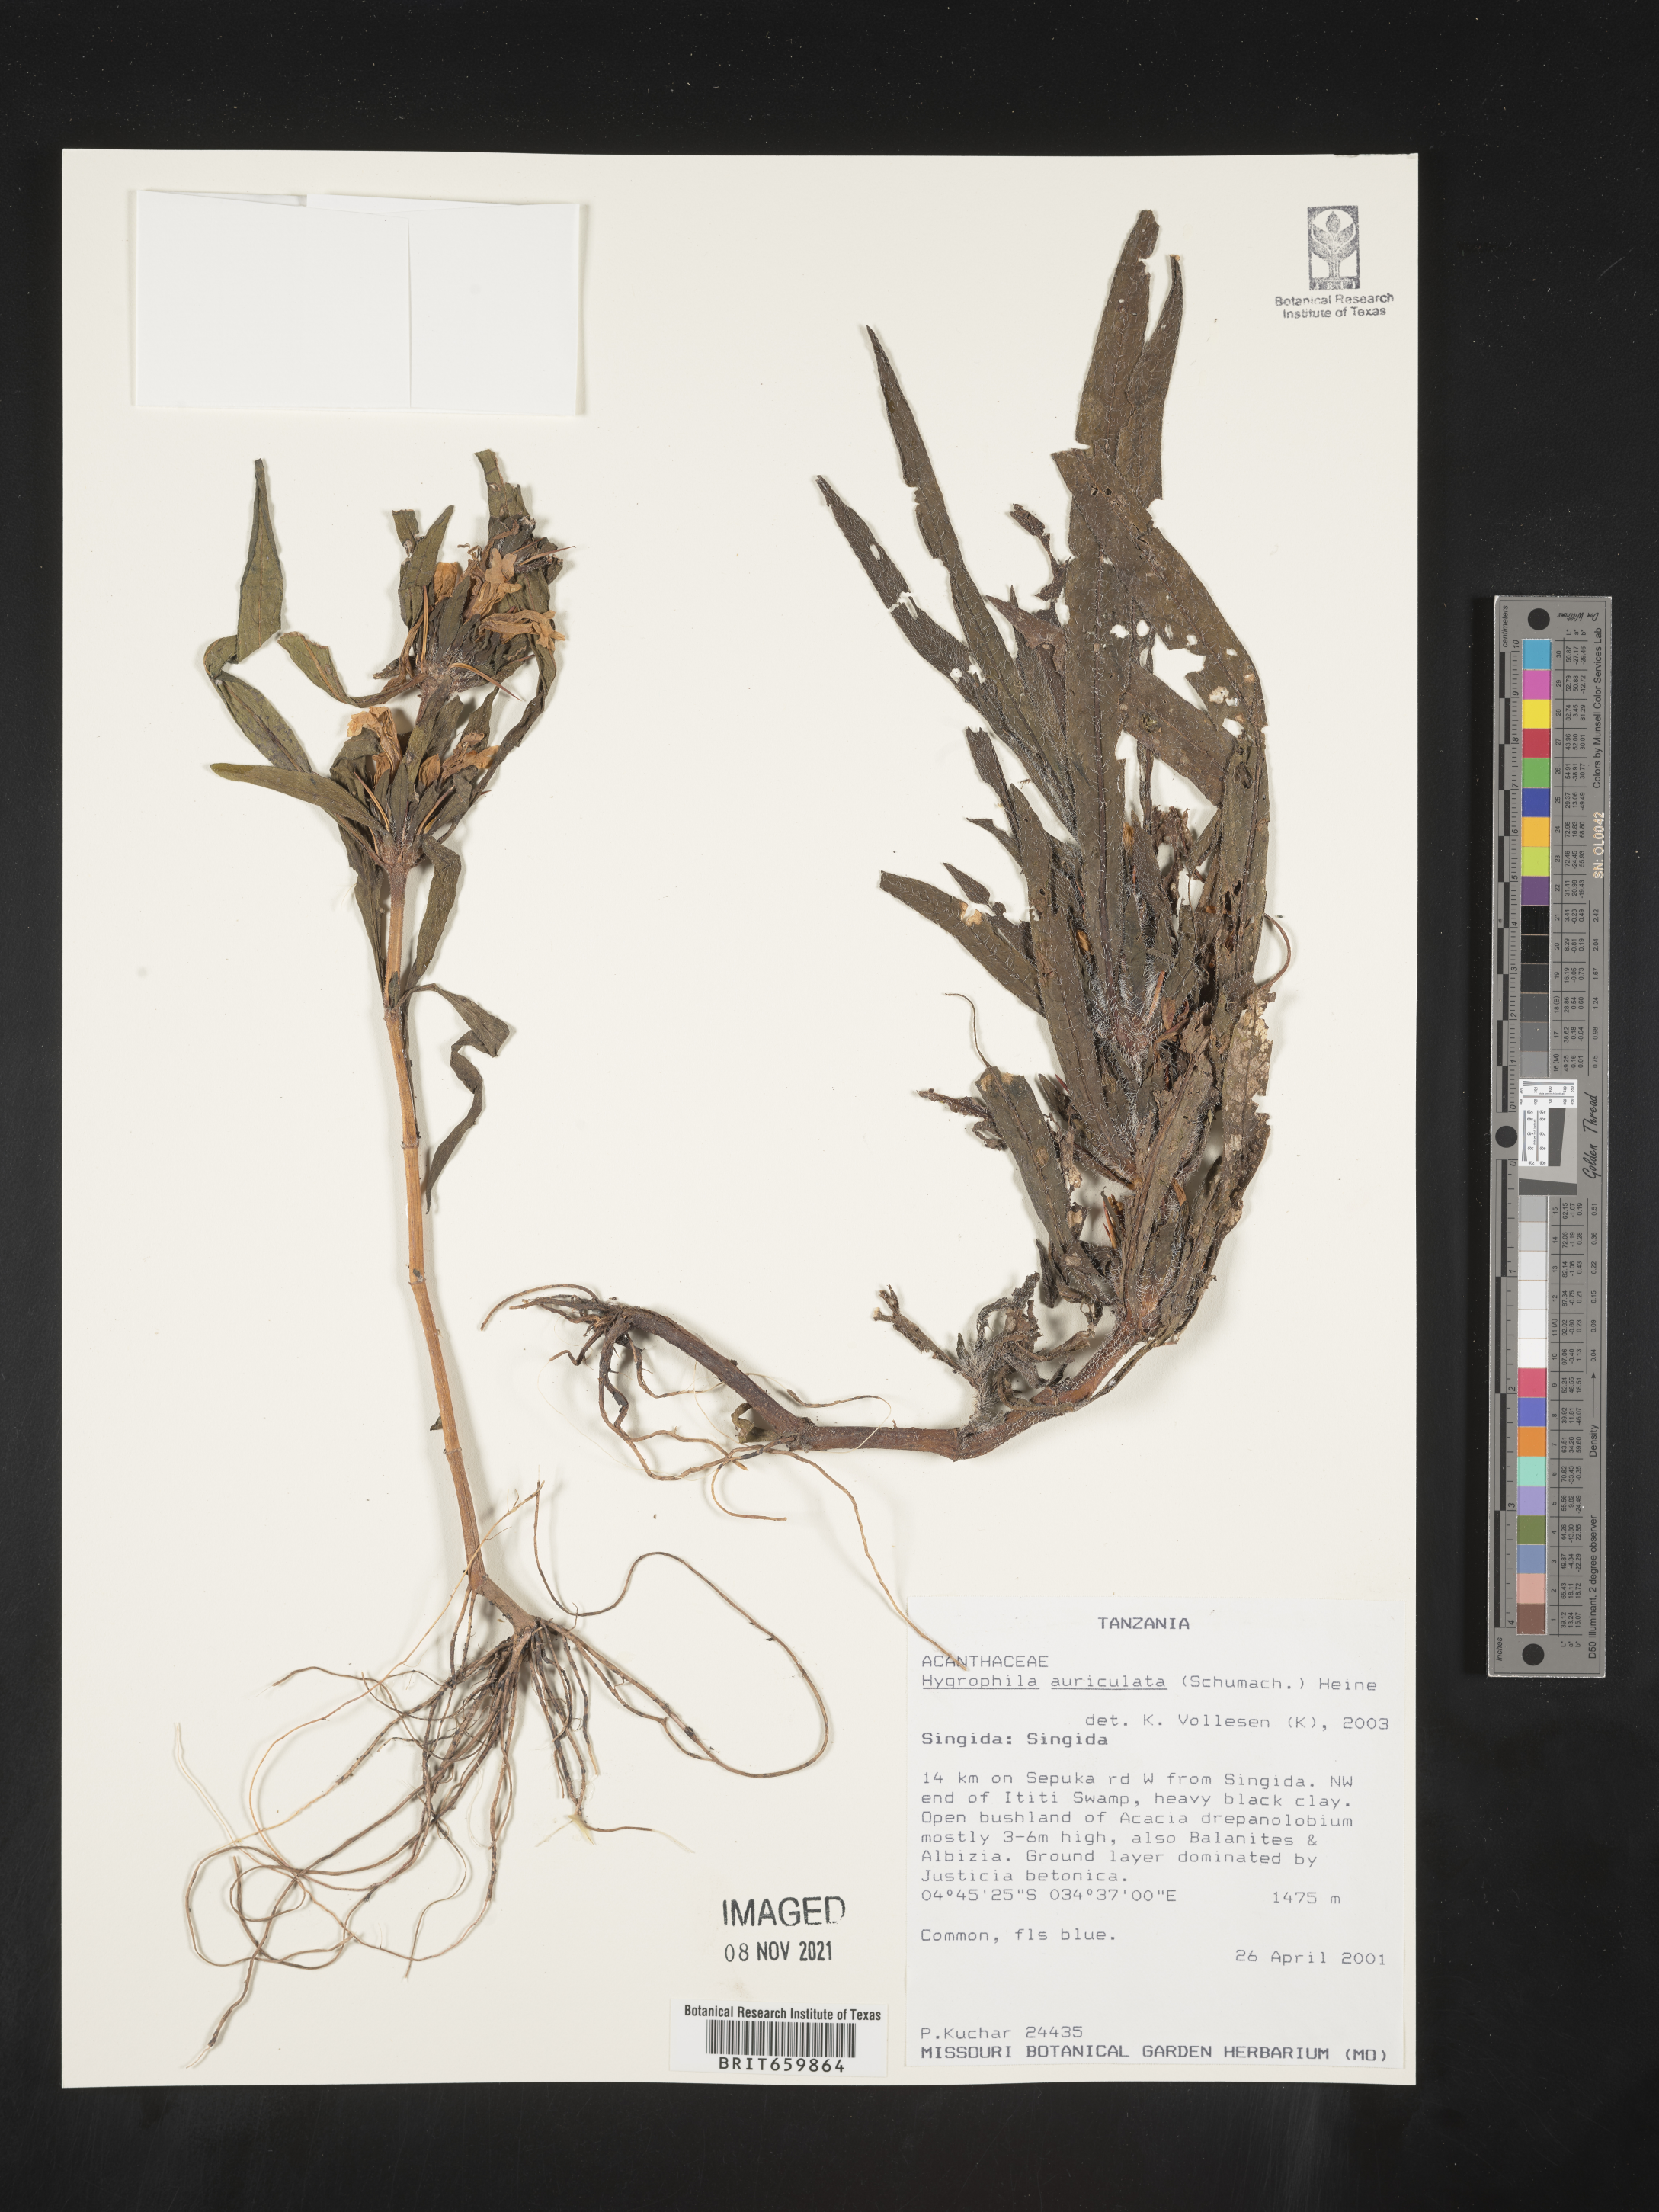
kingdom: Plantae
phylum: Tracheophyta
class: Magnoliopsida
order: Lamiales
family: Acanthaceae
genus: Hygrophila
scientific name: Hygrophila
